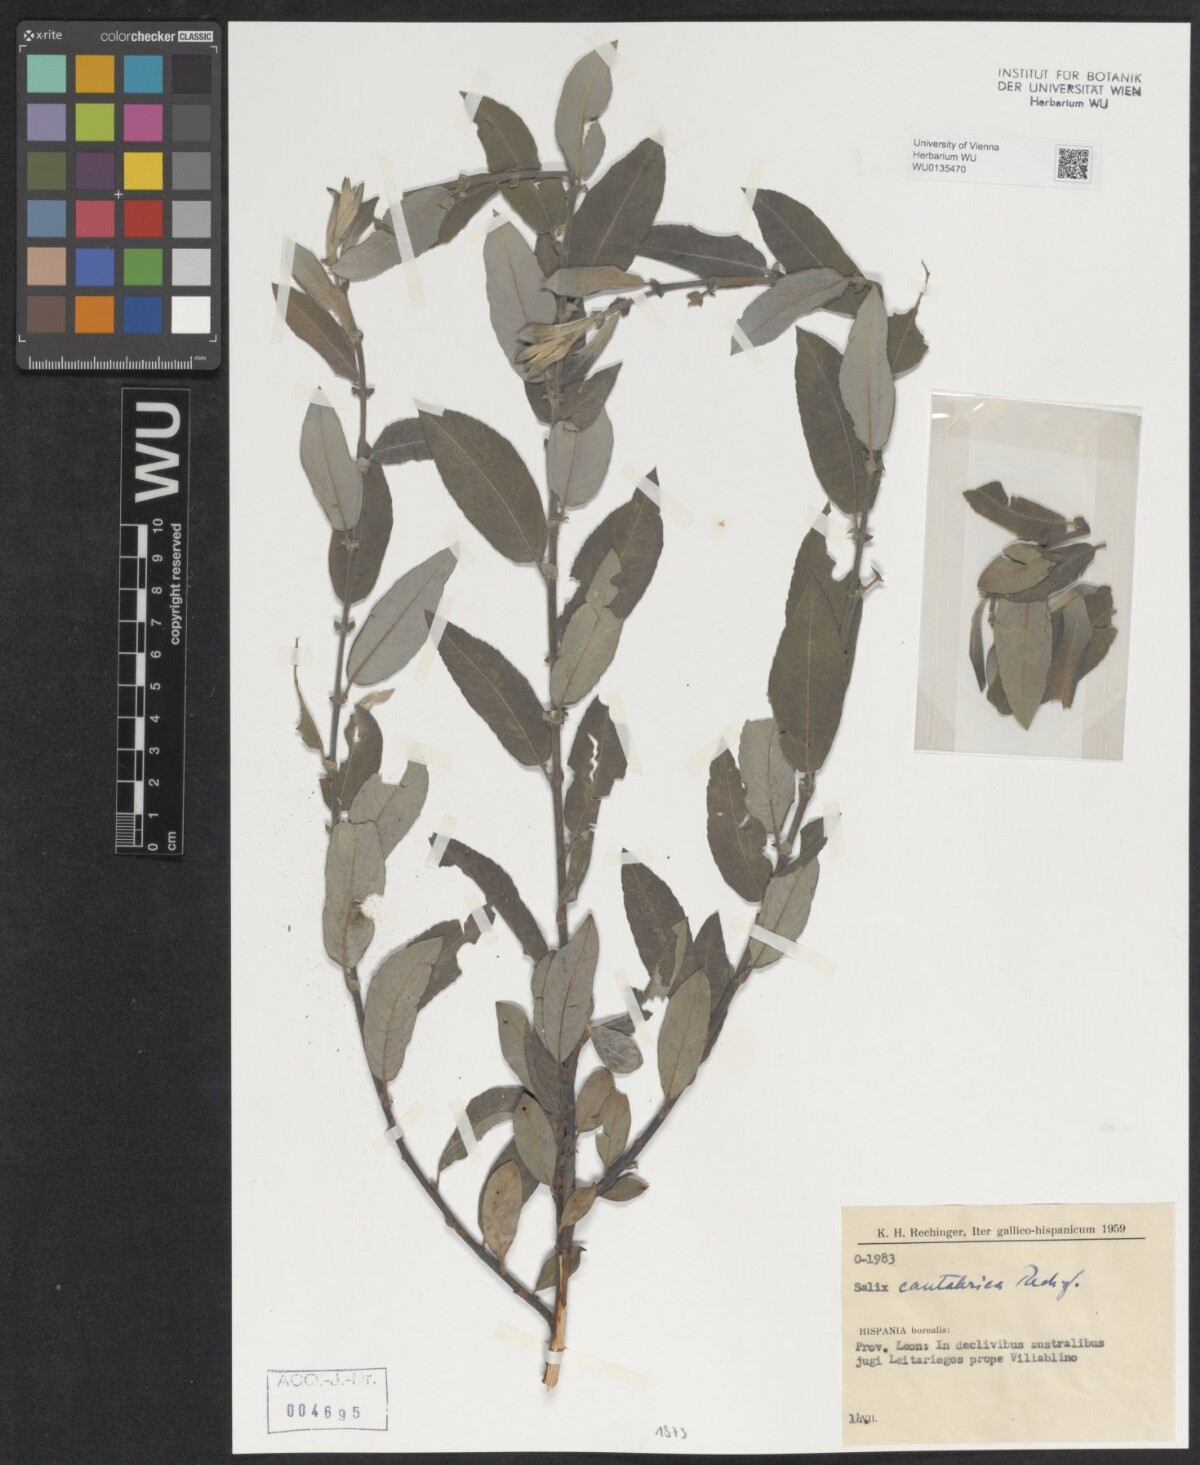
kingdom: Plantae
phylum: Tracheophyta
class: Magnoliopsida
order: Malpighiales
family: Salicaceae
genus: Salix
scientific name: Salix cantabrica
